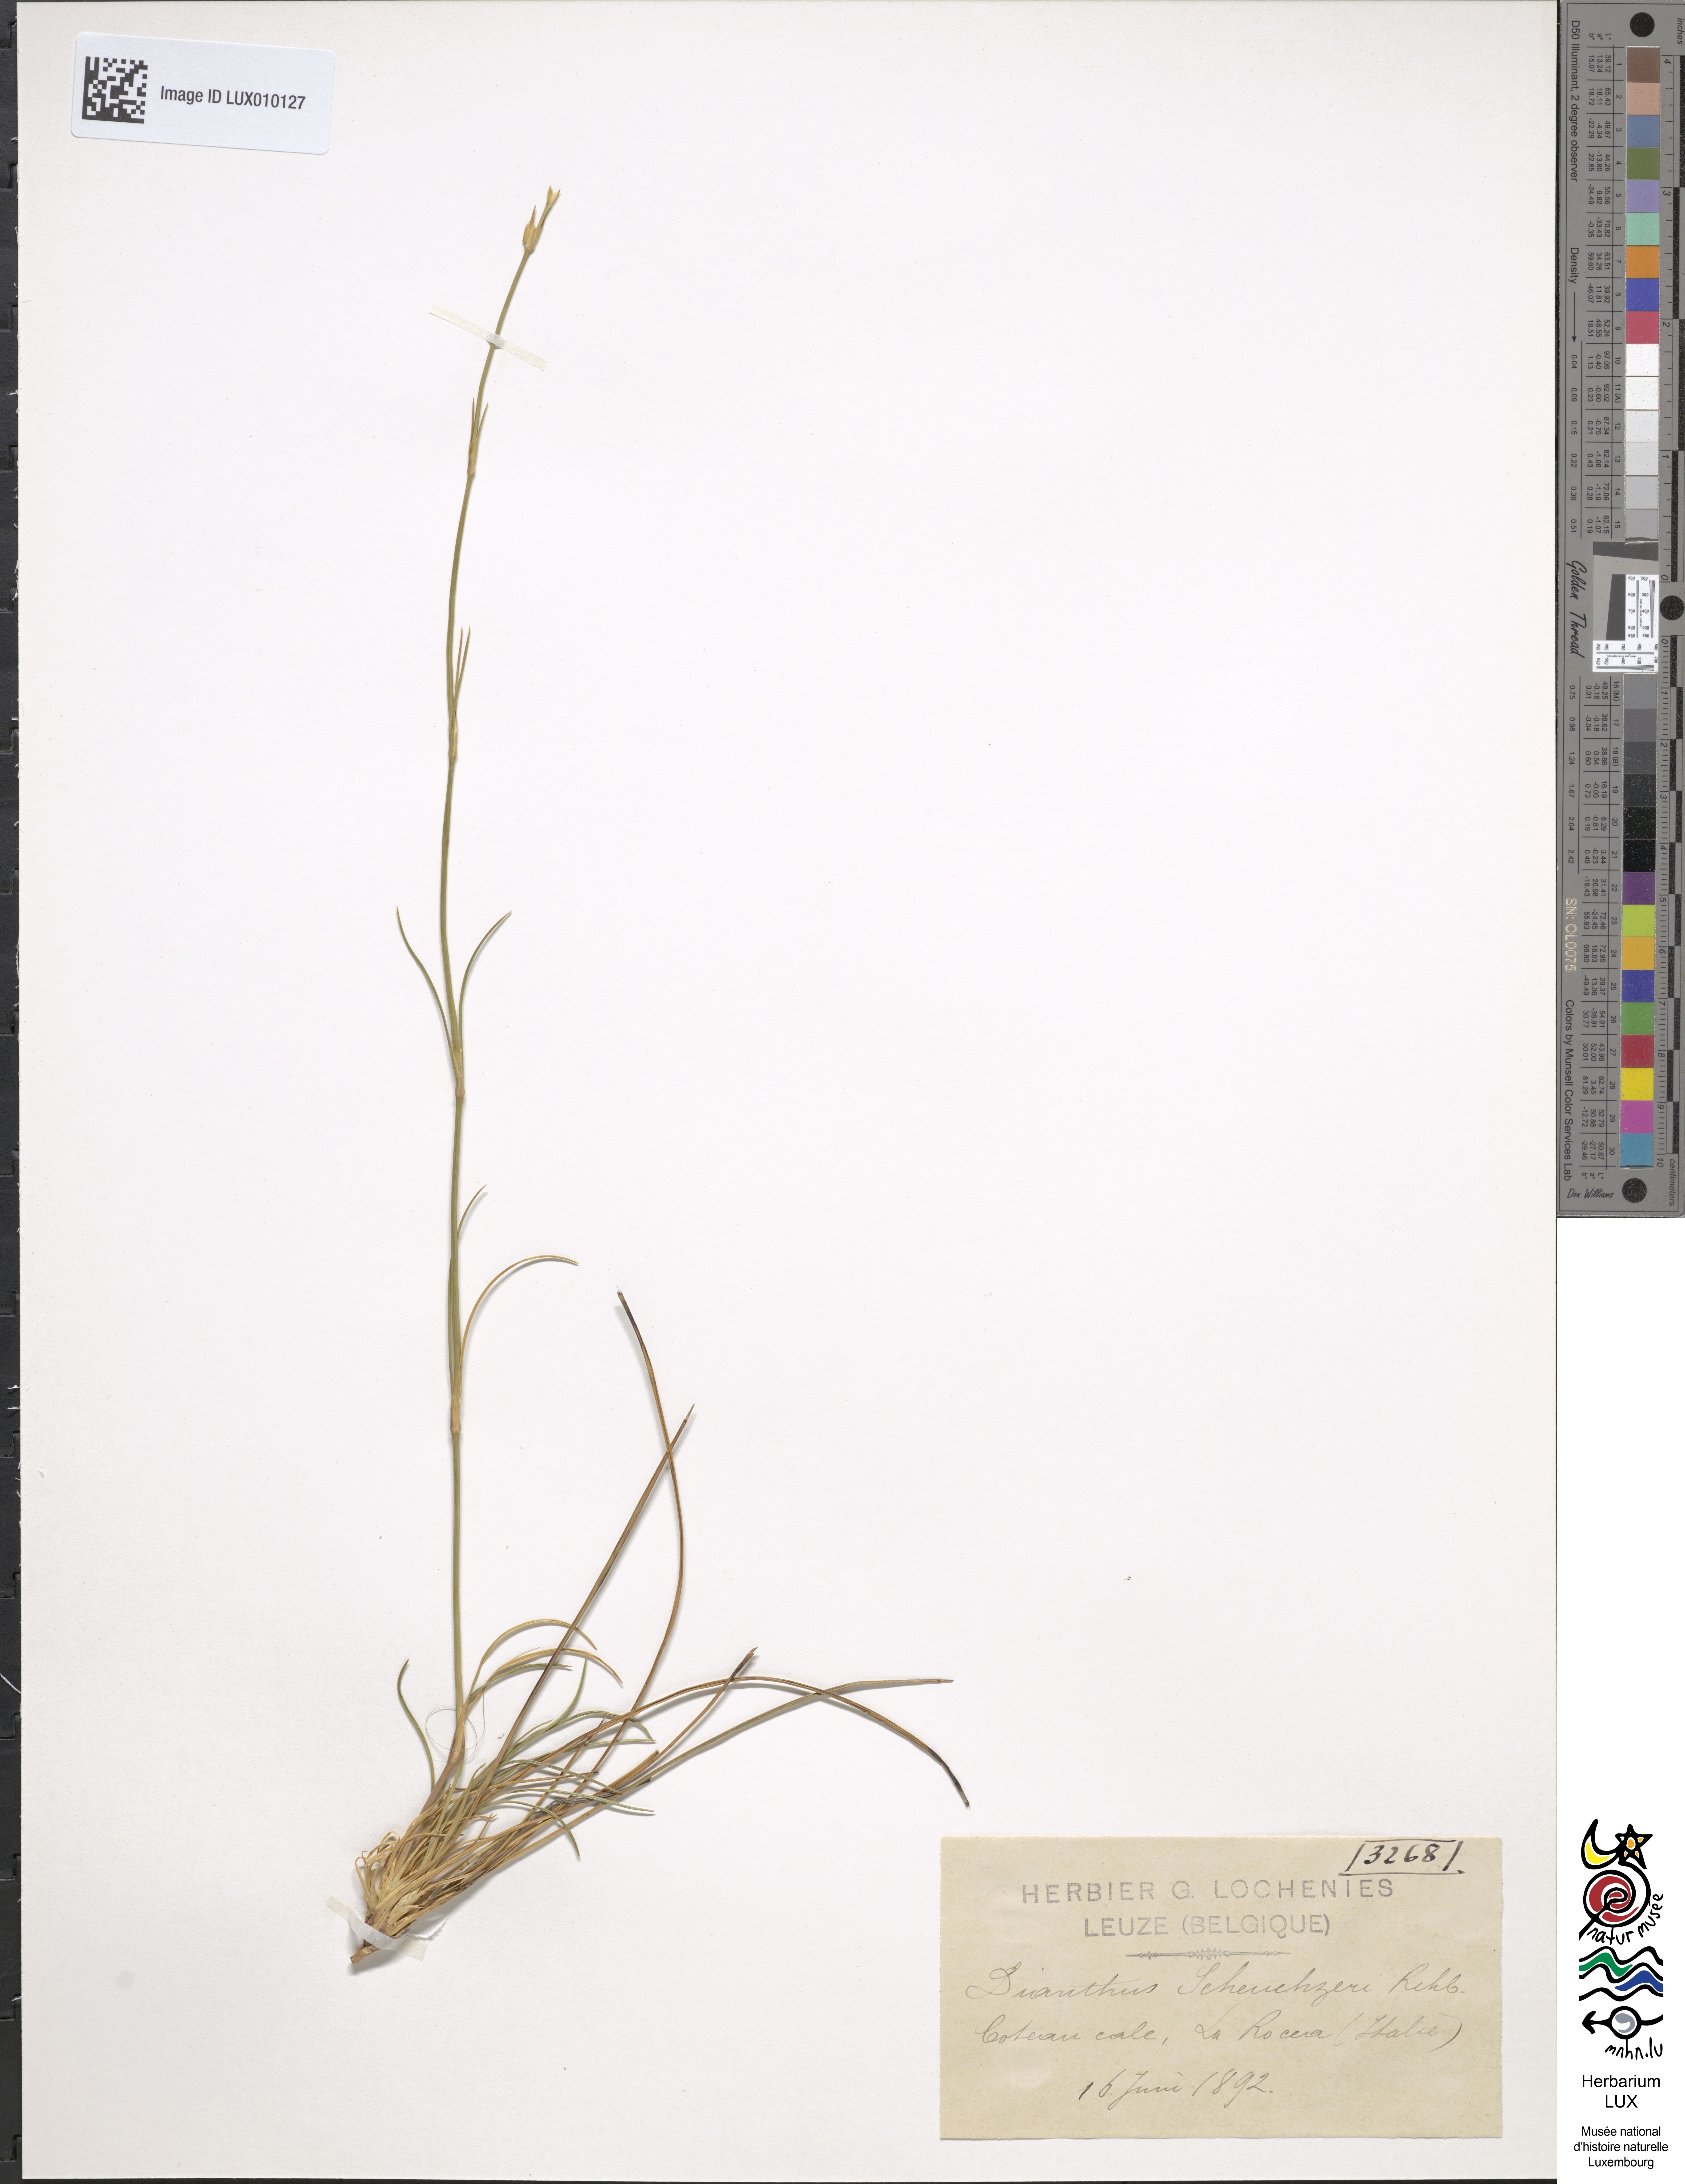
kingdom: Plantae
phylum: Tracheophyta
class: Magnoliopsida
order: Caryophyllales
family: Caryophyllaceae
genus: Dianthus
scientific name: Dianthus sylvestris
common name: Wood pink
